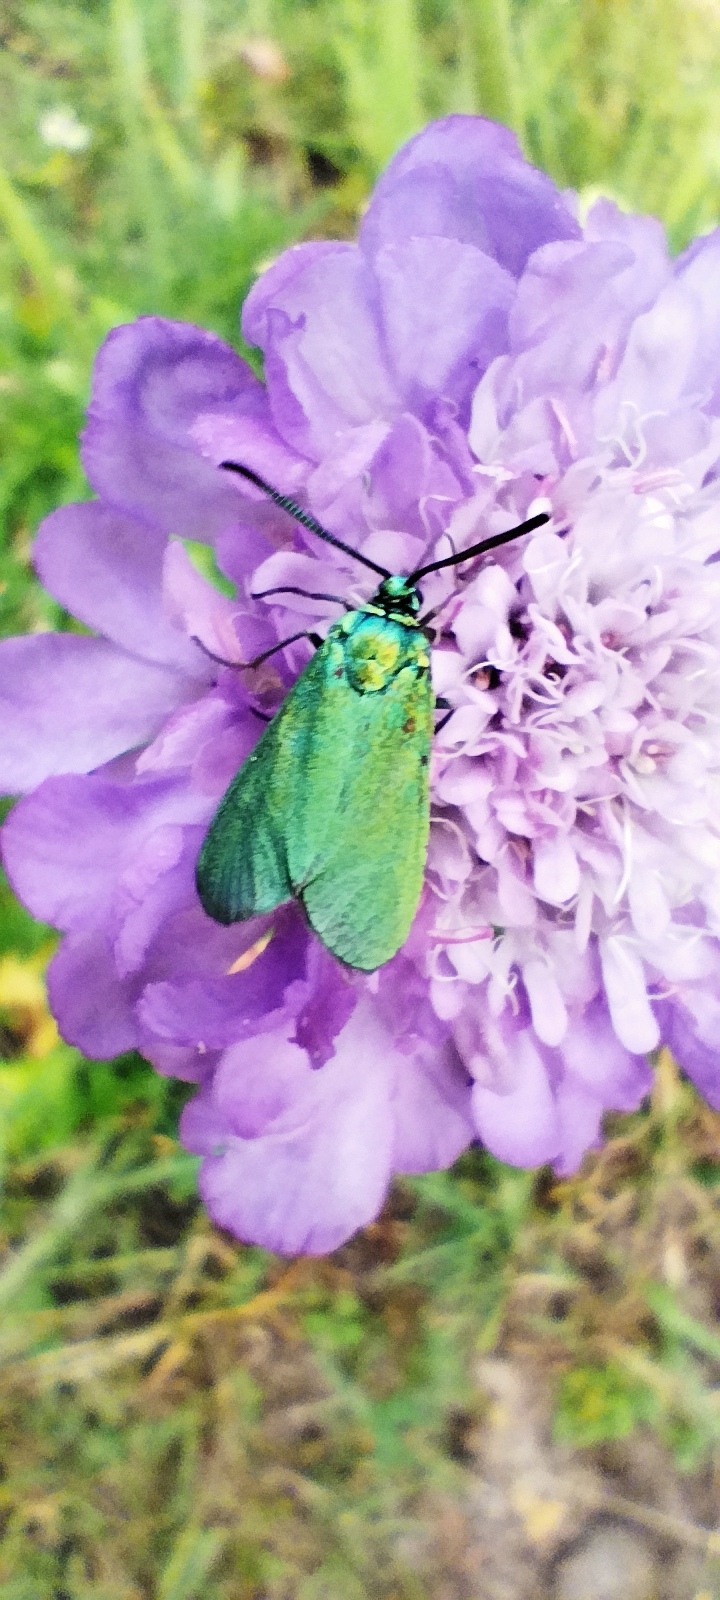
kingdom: Animalia
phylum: Arthropoda
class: Insecta
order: Lepidoptera
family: Zygaenidae
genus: Adscita
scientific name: Adscita statices
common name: Metalvinge
